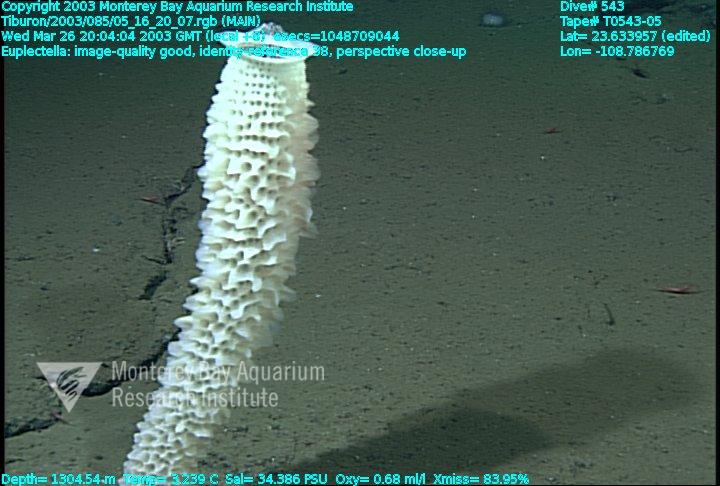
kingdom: Animalia
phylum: Porifera
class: Hexactinellida
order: Lyssacinosida
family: Euplectellidae
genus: Euplectella
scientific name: Euplectella
